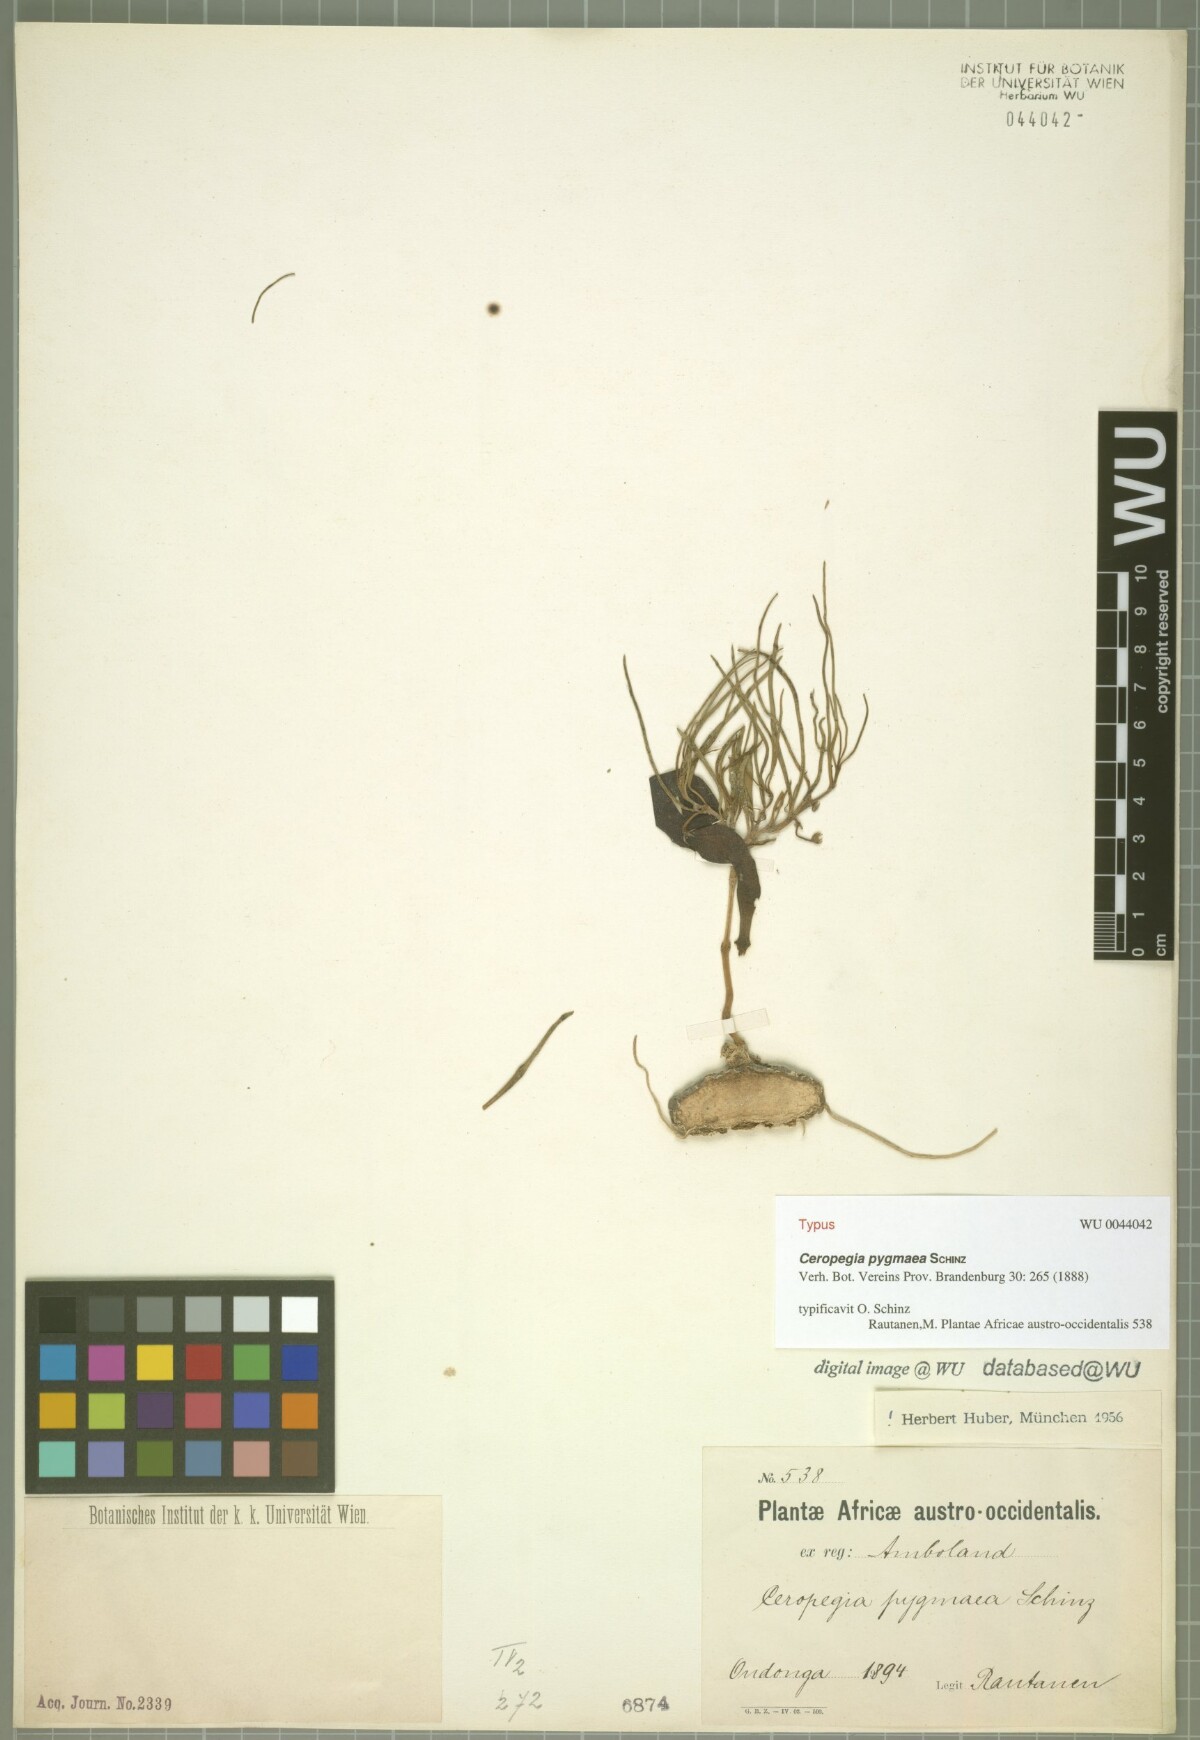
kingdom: Plantae
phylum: Tracheophyta
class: Magnoliopsida
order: Gentianales
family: Apocynaceae
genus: Ceropegia
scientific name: Ceropegia pygmaea
